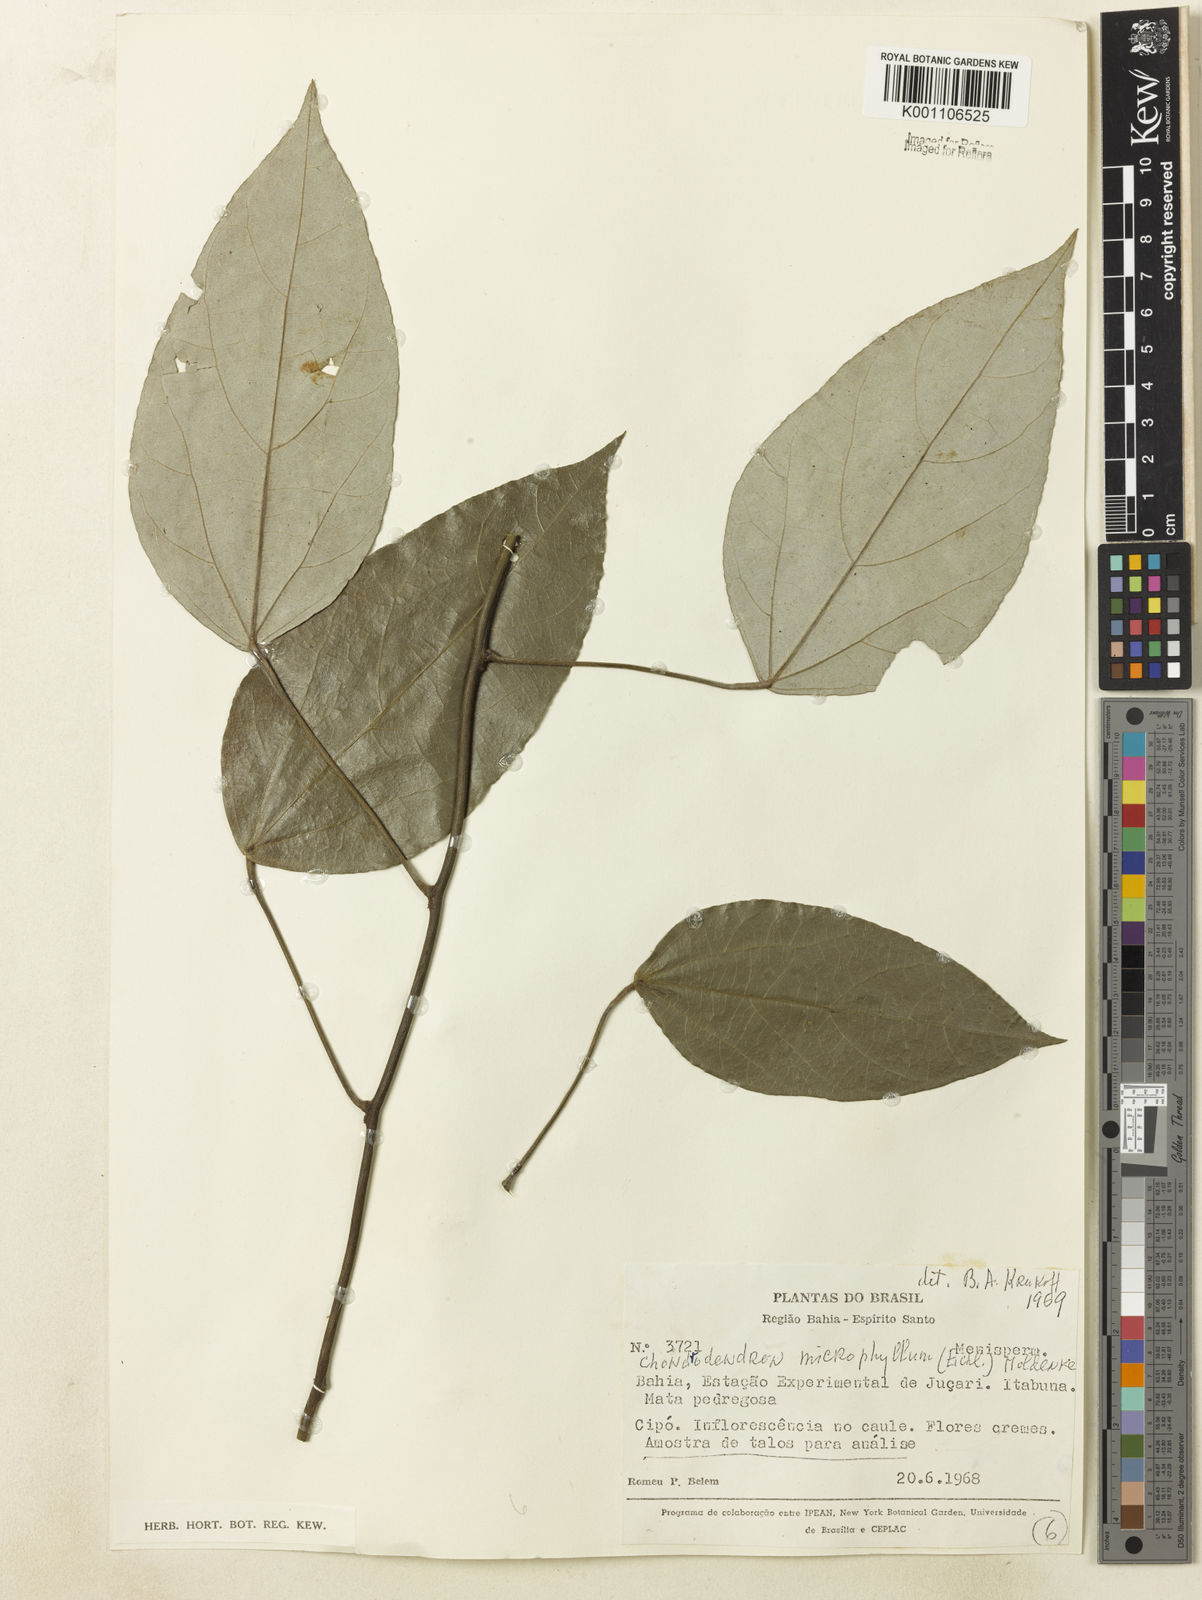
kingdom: Plantae
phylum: Tracheophyta
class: Magnoliopsida
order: Ranunculales
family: Menispermaceae
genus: Chondrodendron
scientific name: Chondrodendron microphyllum
